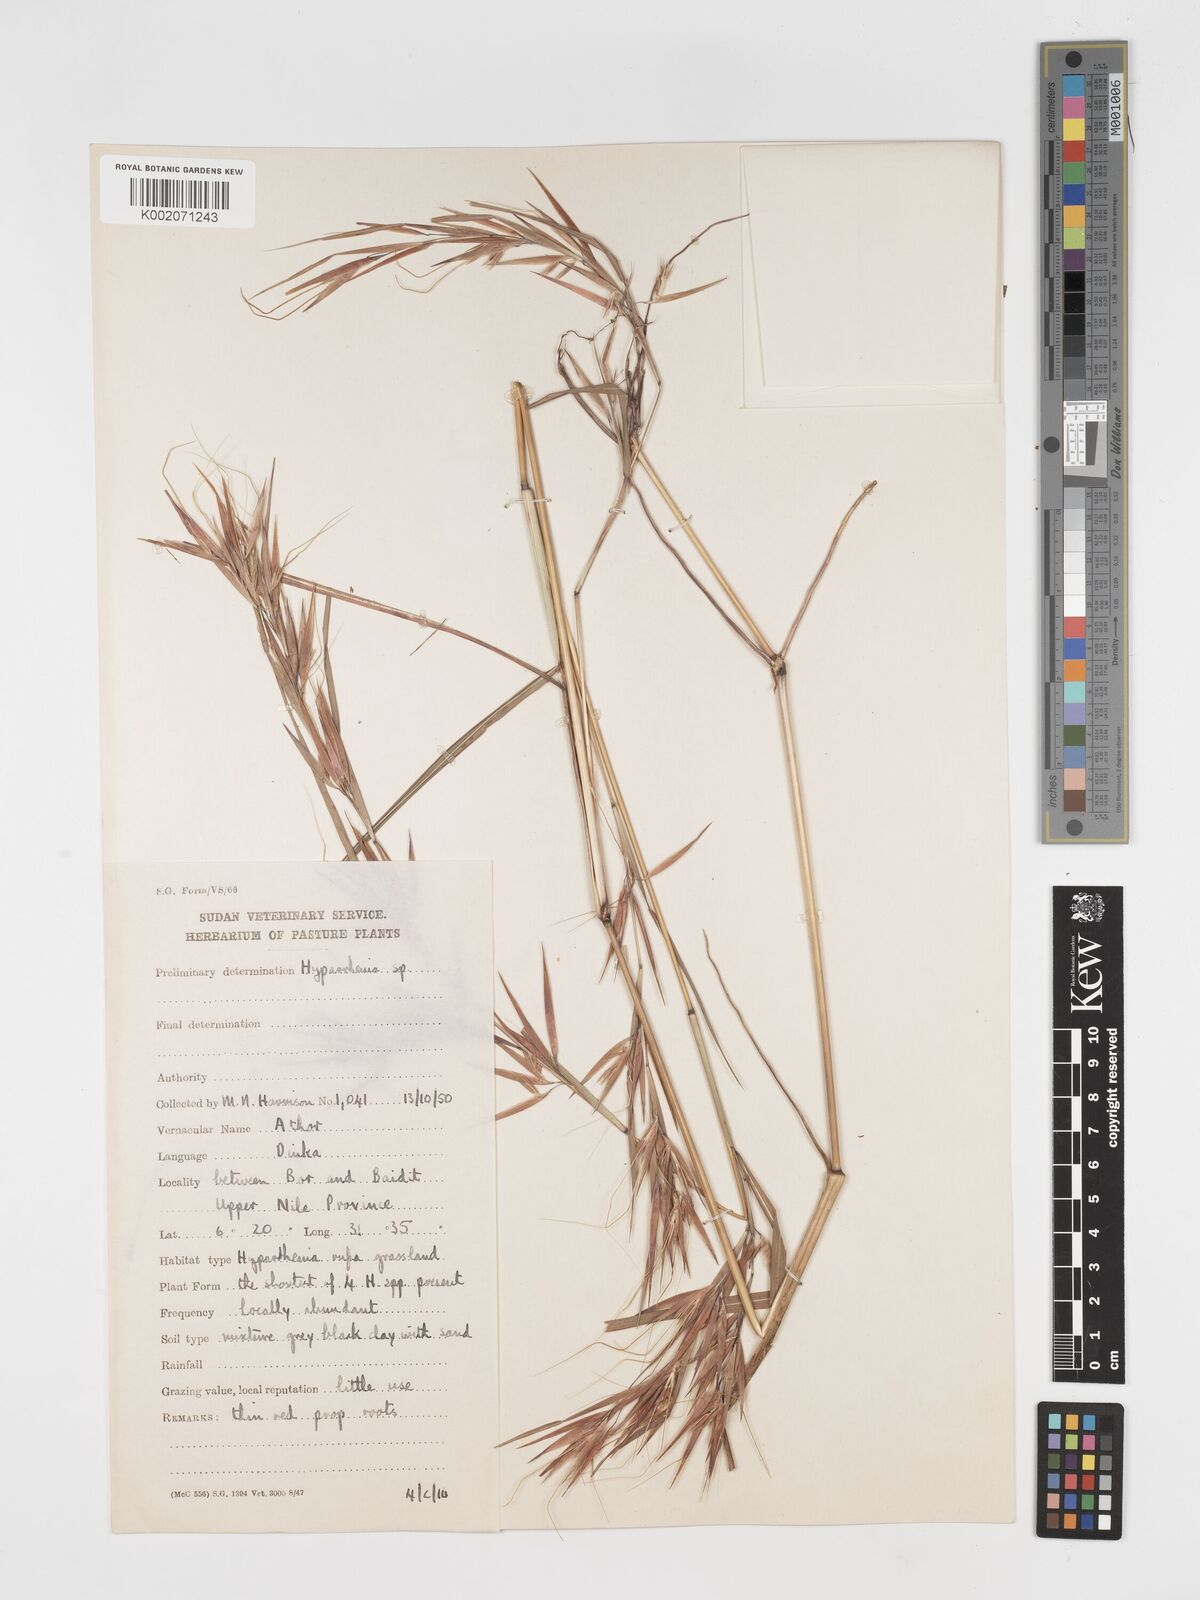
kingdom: Plantae
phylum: Tracheophyta
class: Liliopsida
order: Poales
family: Poaceae
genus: Hyparrhenia
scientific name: Hyparrhenia madaropoda
